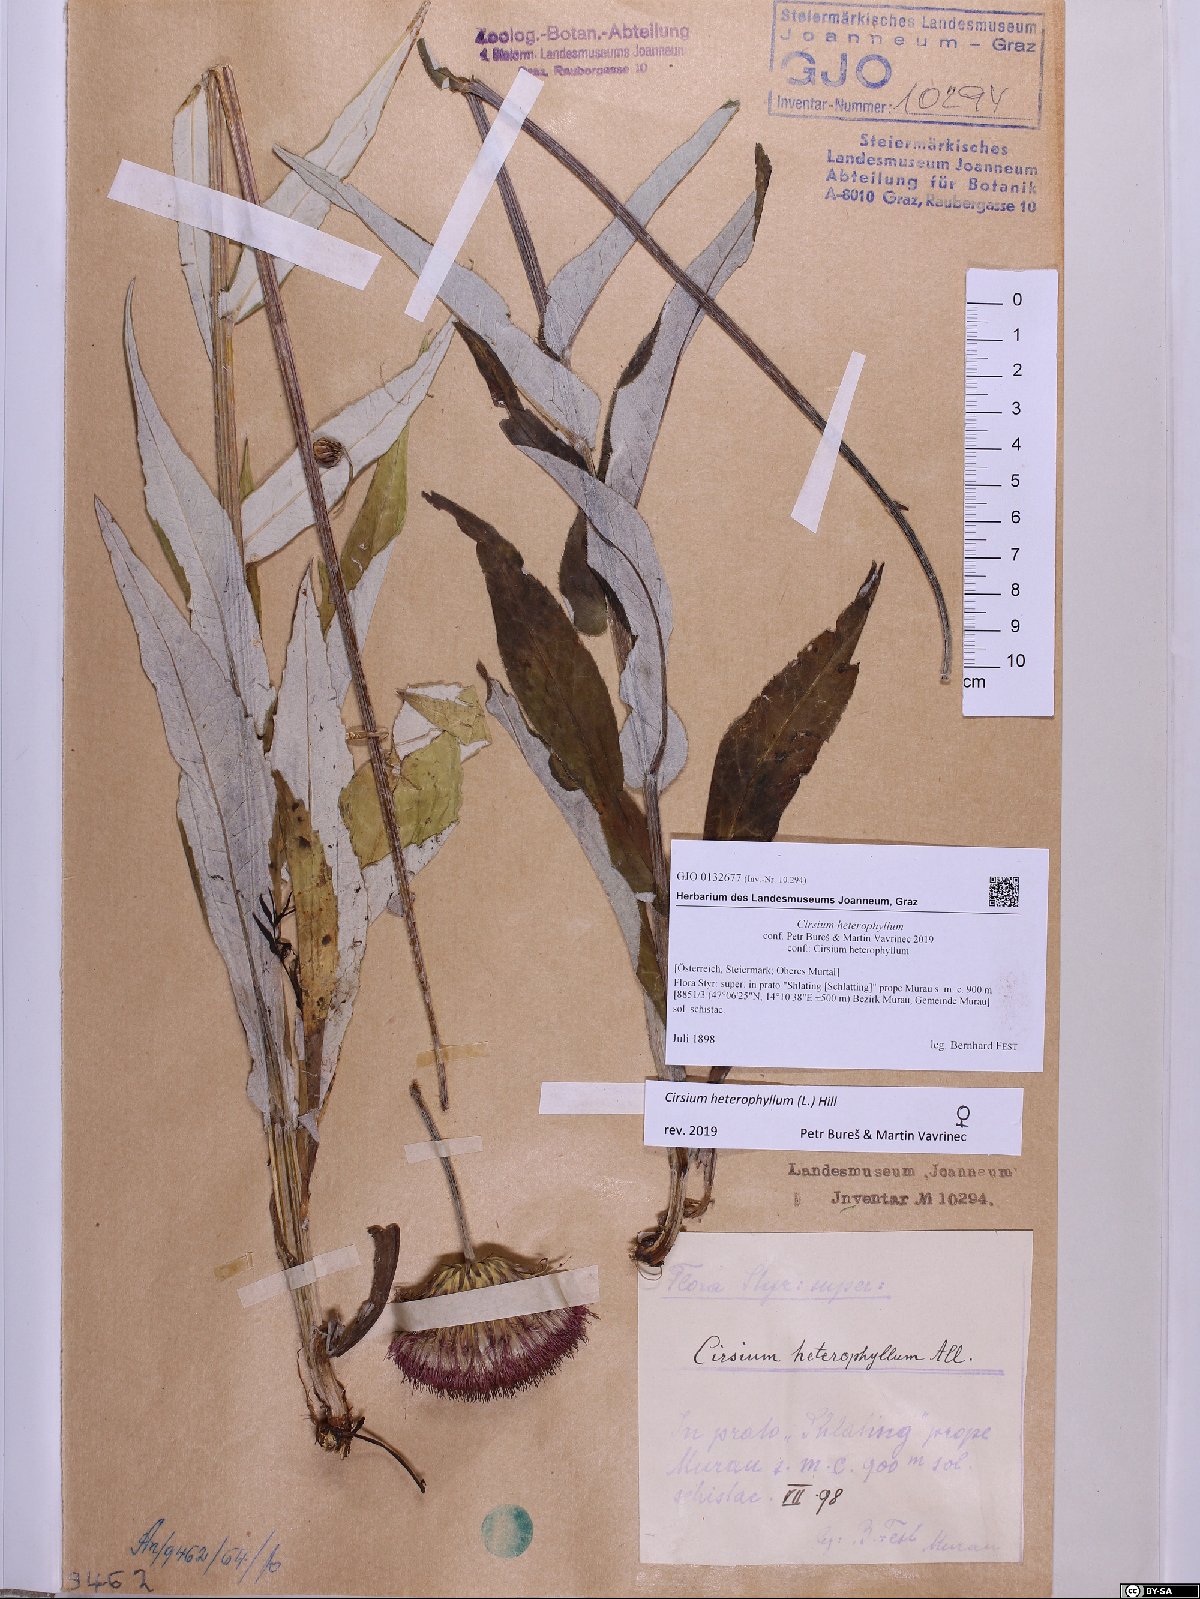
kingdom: Plantae
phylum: Tracheophyta
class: Magnoliopsida
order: Asterales
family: Asteraceae
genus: Cirsium
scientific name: Cirsium heterophyllum
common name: Melancholy thistle
